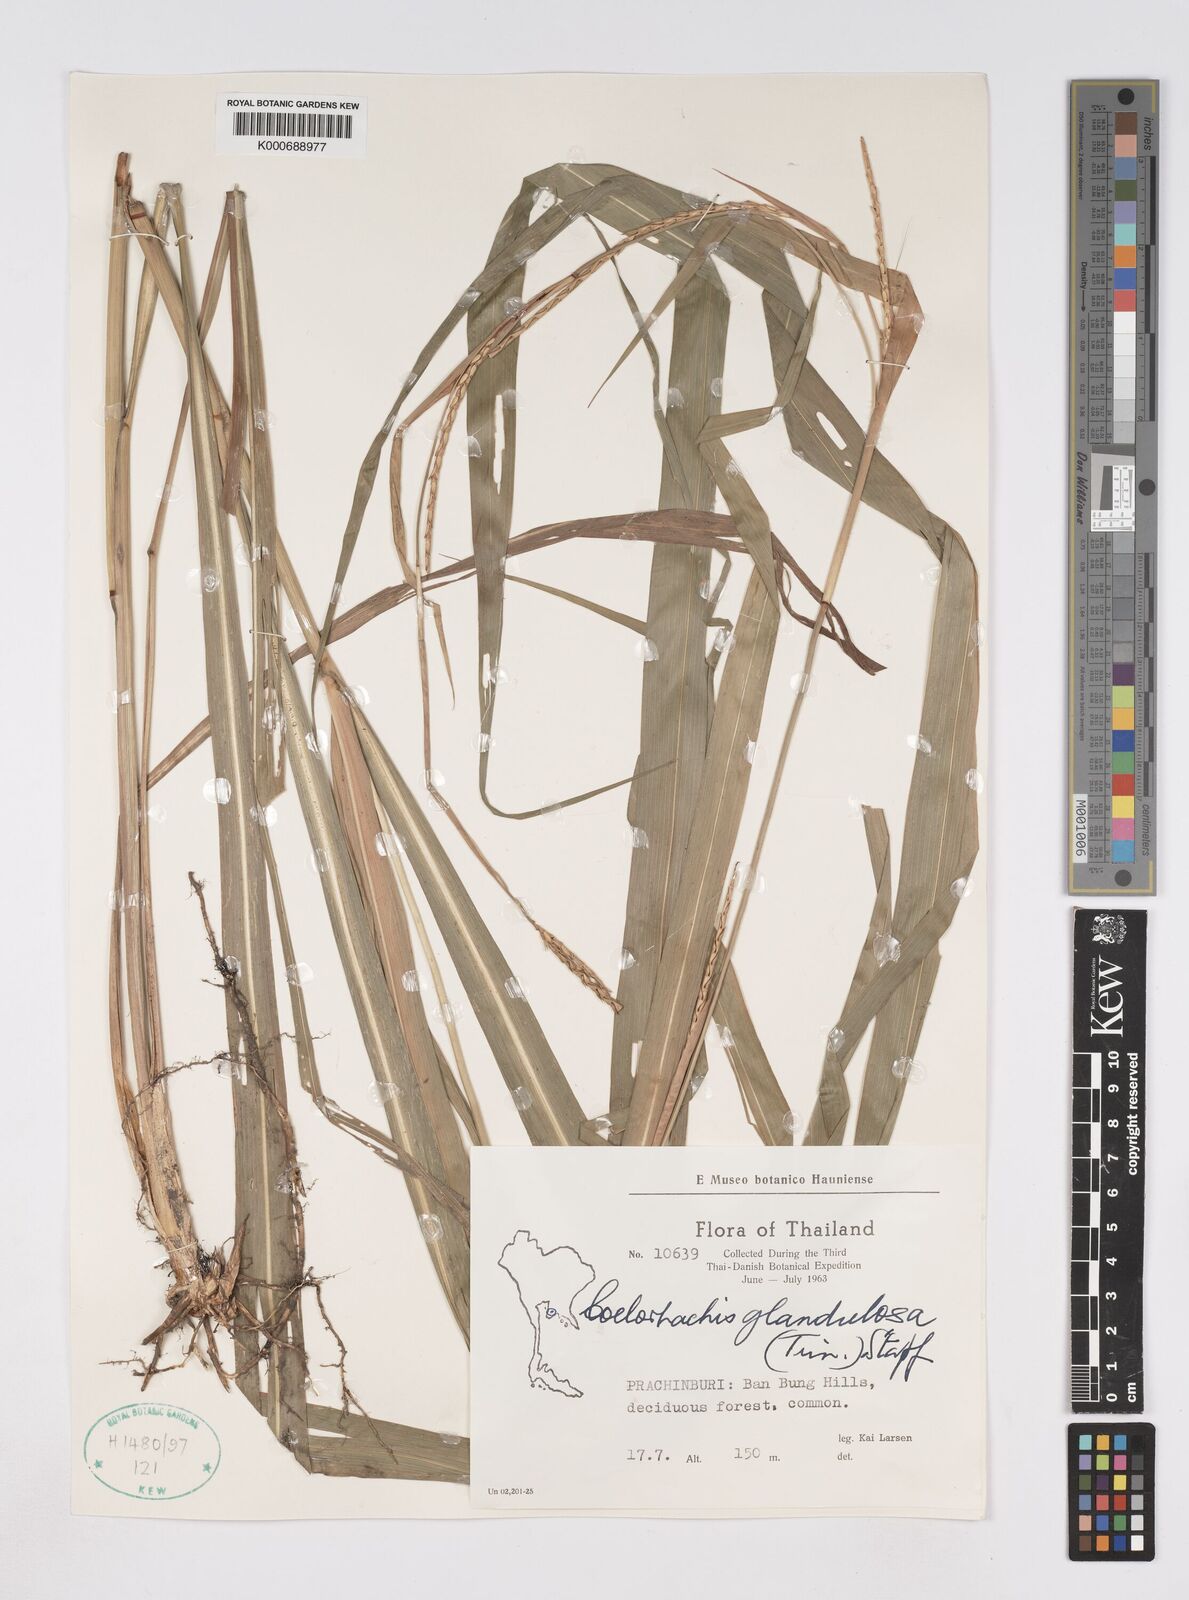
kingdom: Plantae
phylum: Tracheophyta
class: Liliopsida
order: Poales
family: Poaceae
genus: Rottboellia
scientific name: Rottboellia glandulosa
